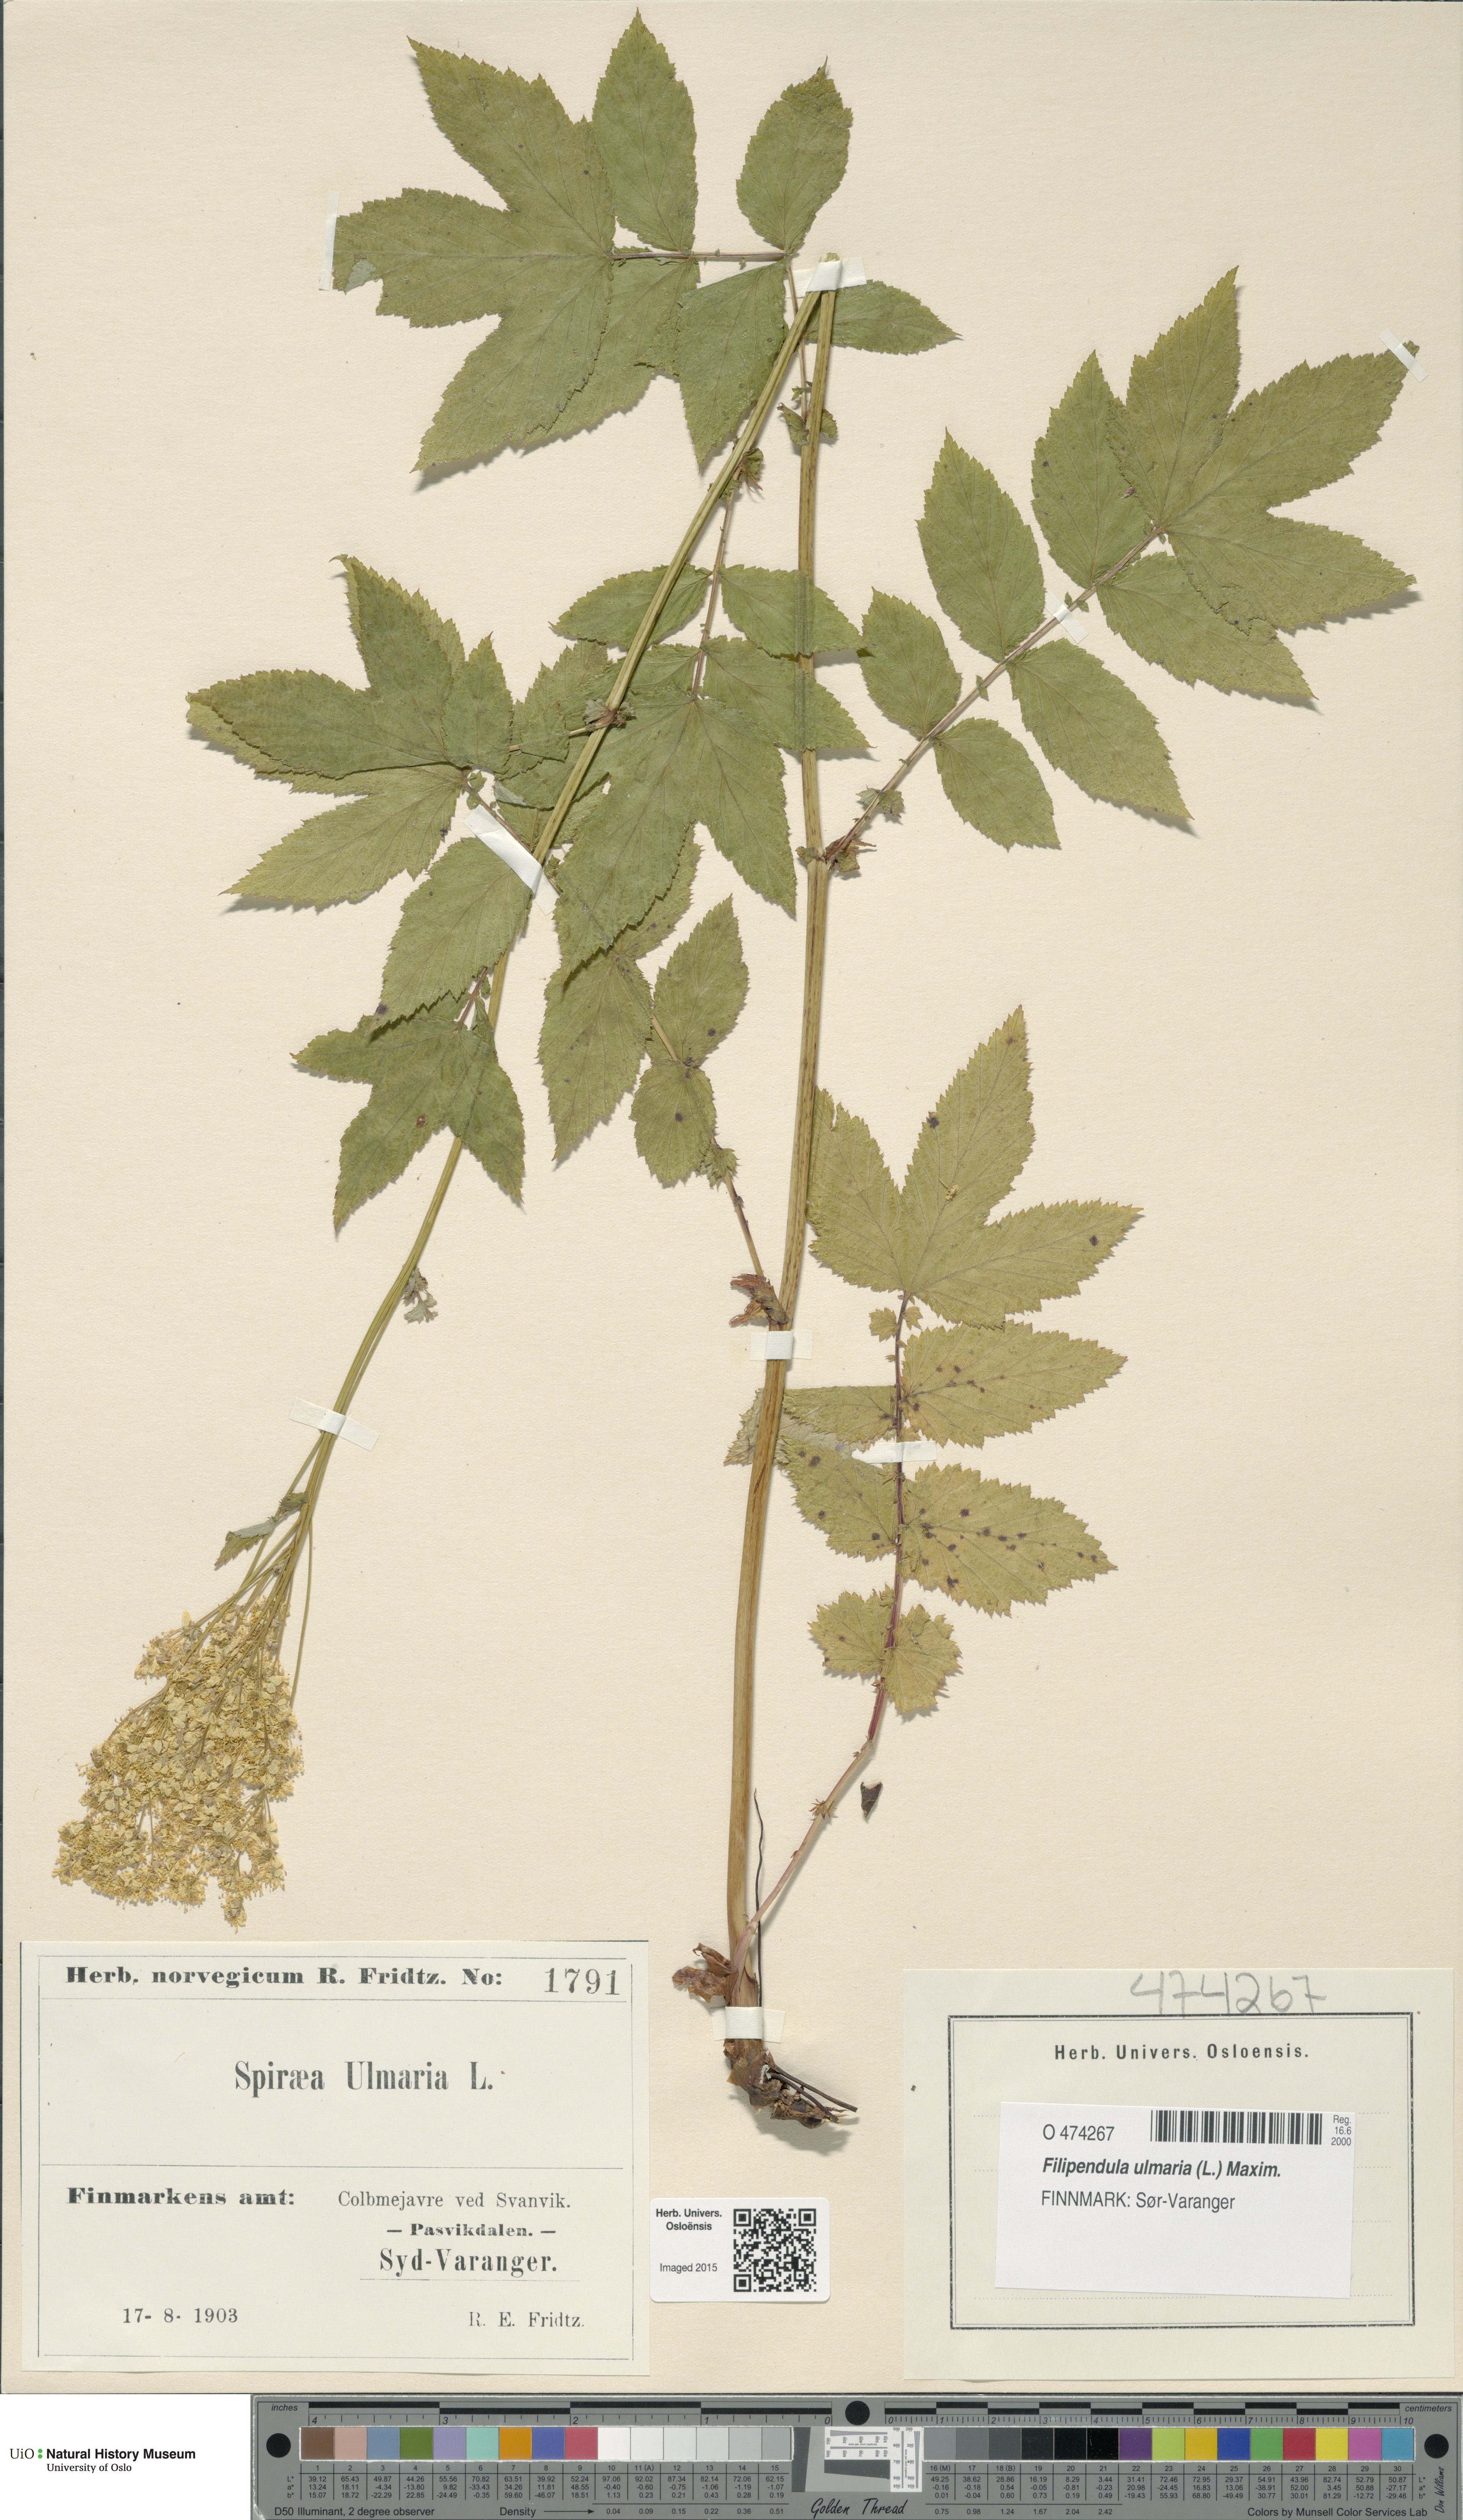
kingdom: Plantae
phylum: Tracheophyta
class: Magnoliopsida
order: Rosales
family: Rosaceae
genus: Filipendula
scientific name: Filipendula ulmaria
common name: Meadowsweet
